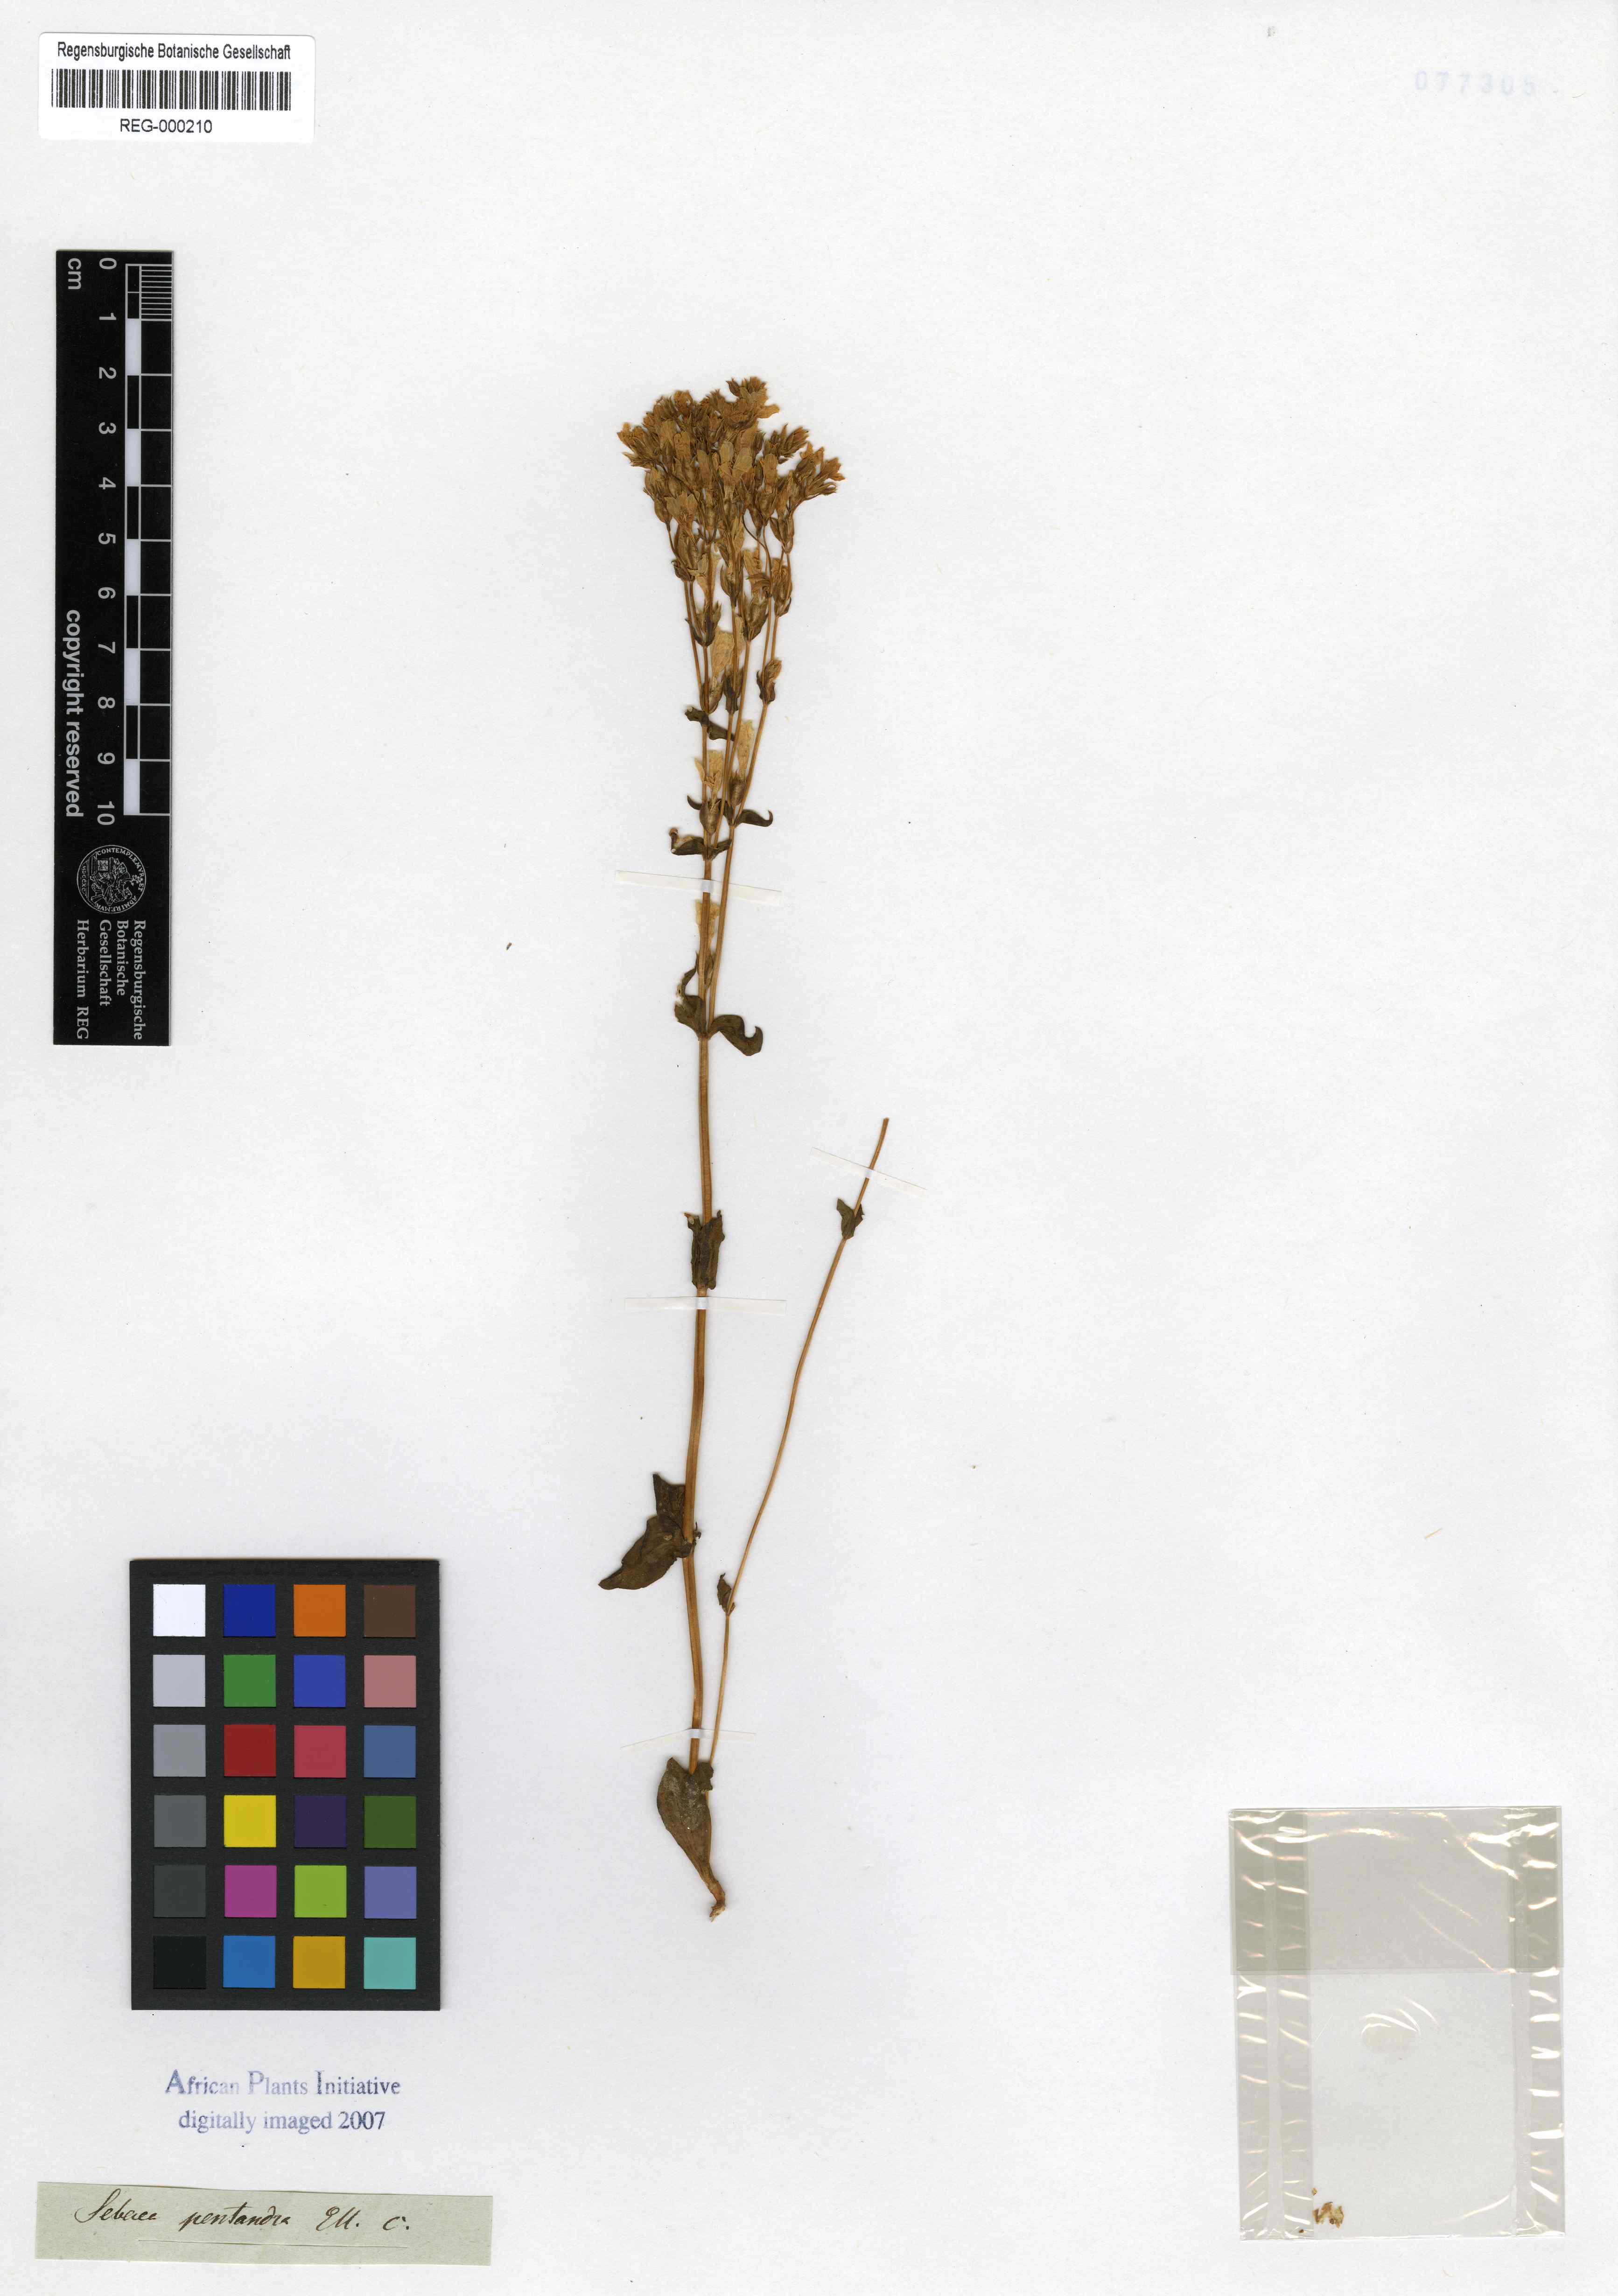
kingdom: Plantae
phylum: Tracheophyta
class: Magnoliopsida
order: Gentianales
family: Gentianaceae
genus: Sebaea
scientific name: Sebaea pentandra
